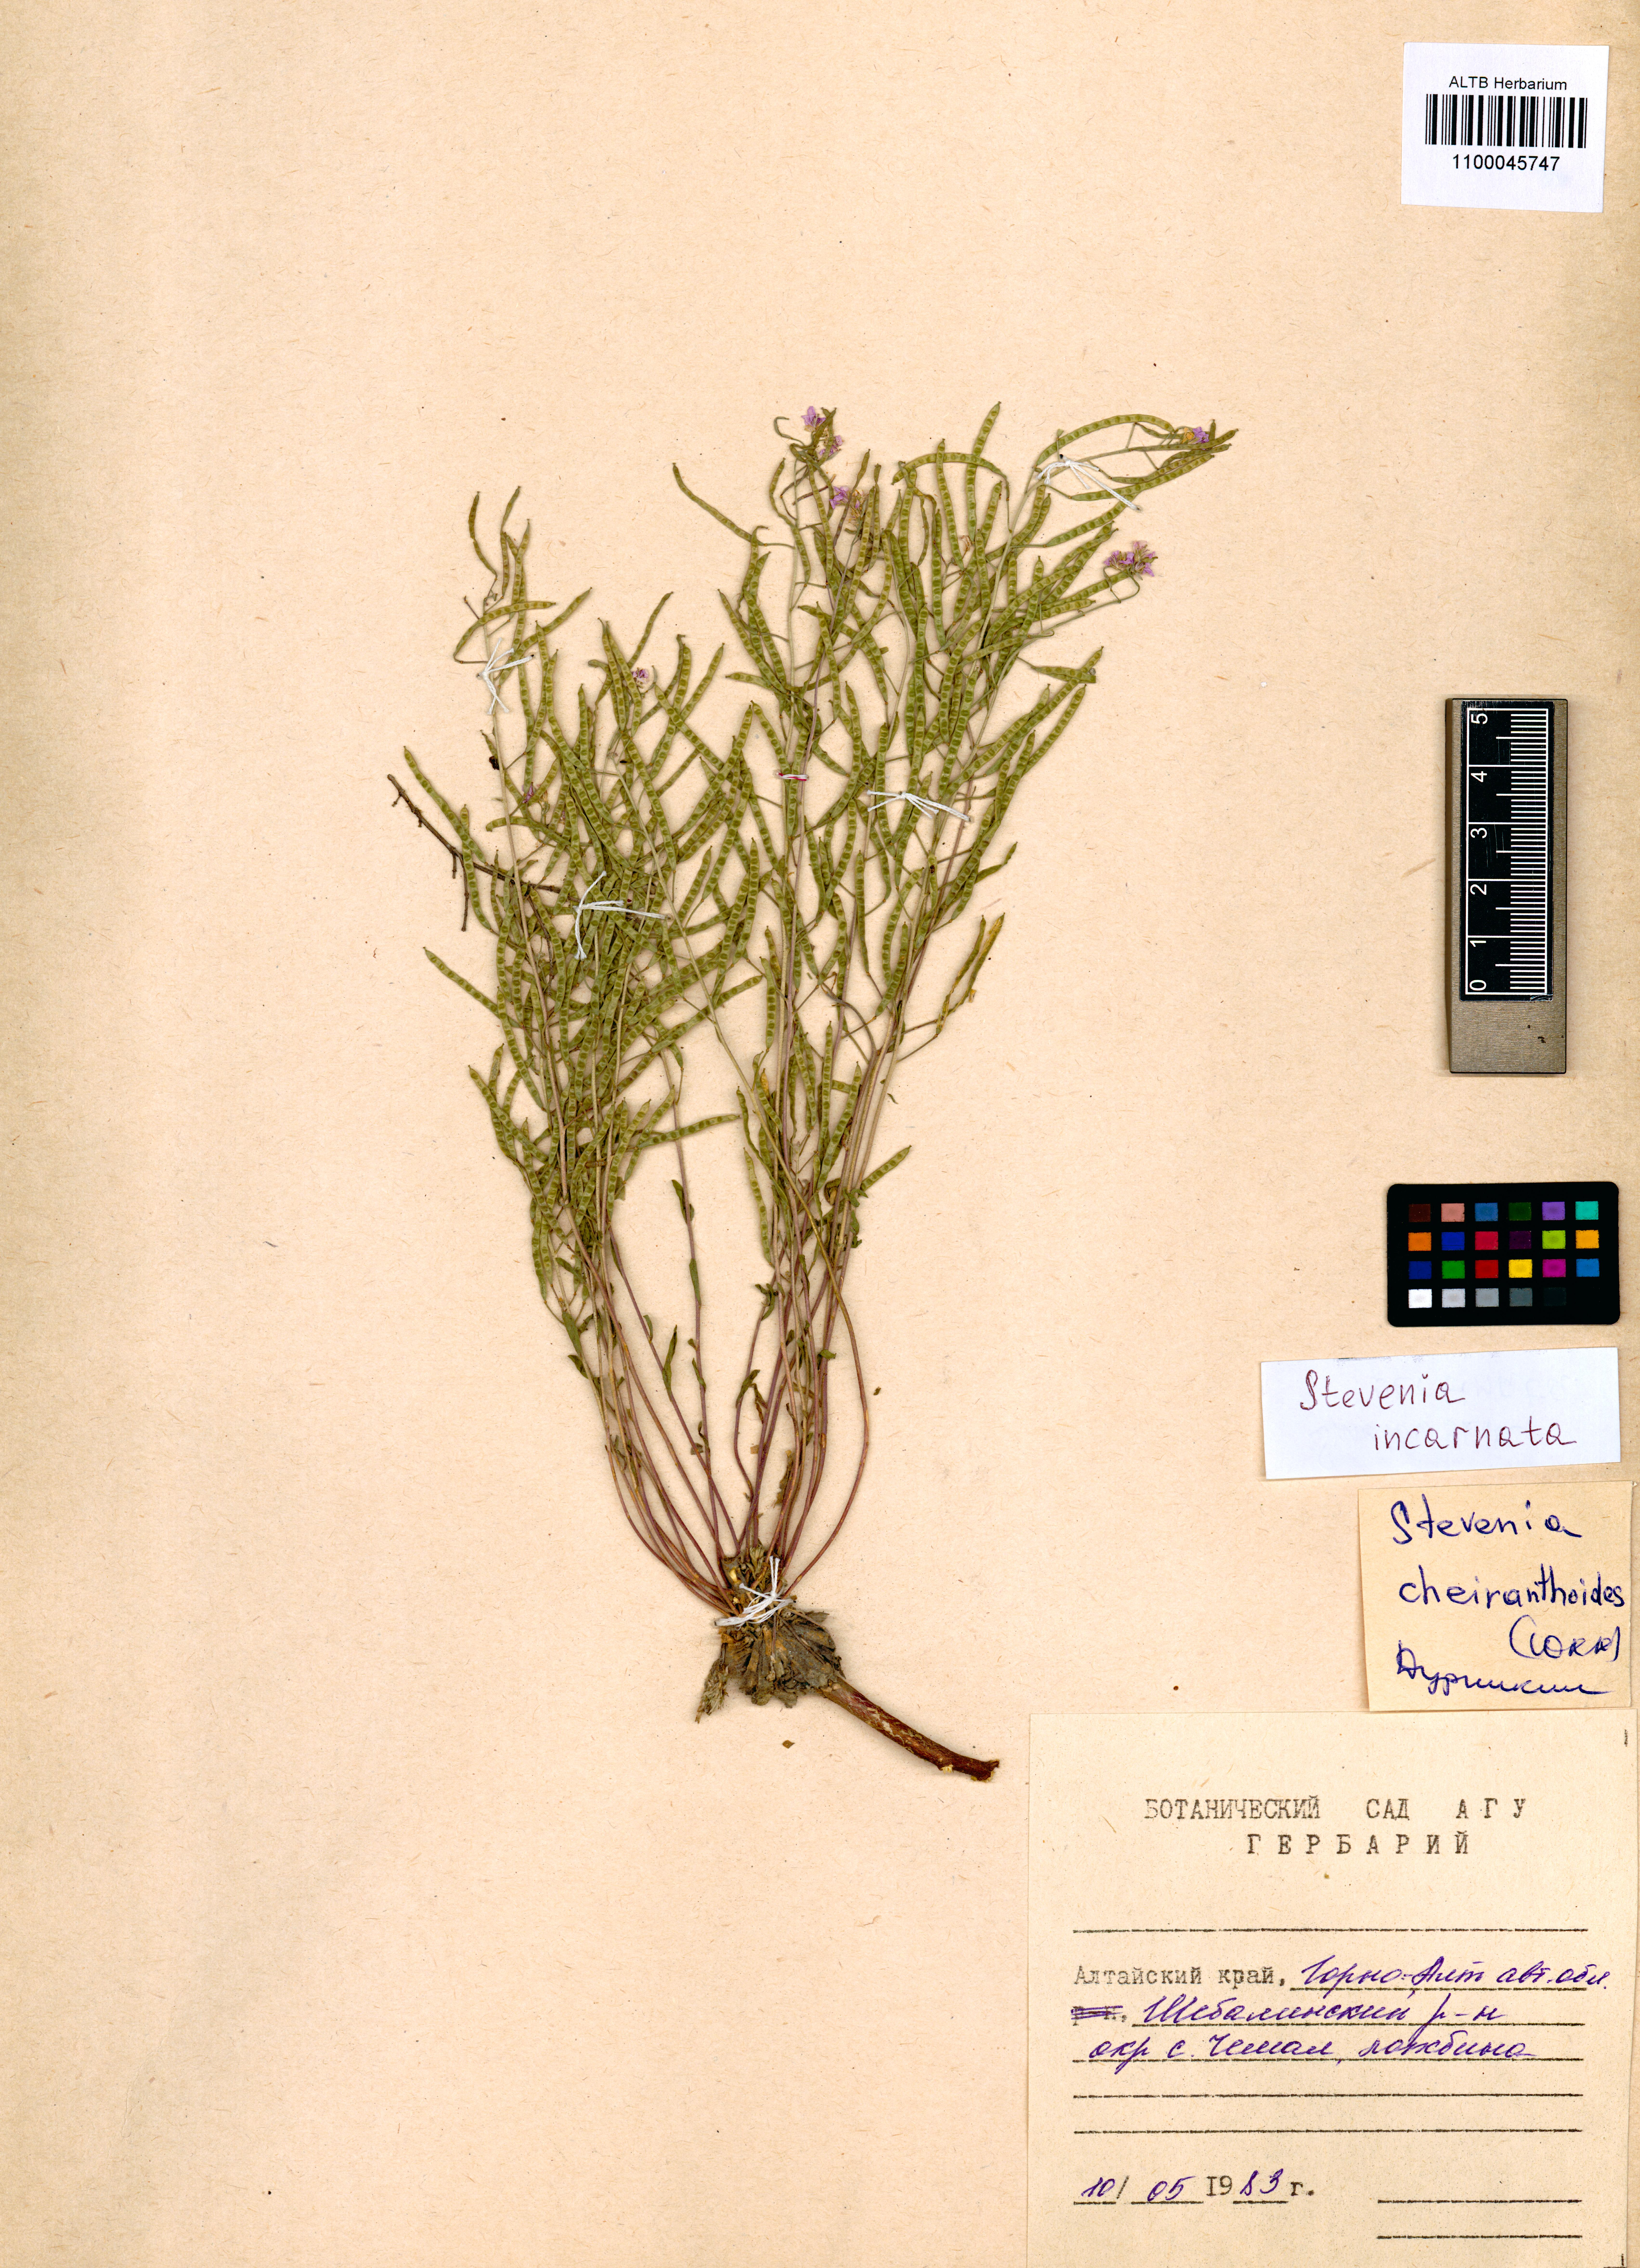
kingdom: Plantae
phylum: Tracheophyta
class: Magnoliopsida
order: Brassicales
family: Brassicaceae
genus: Stevenia
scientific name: Stevenia incarnata
